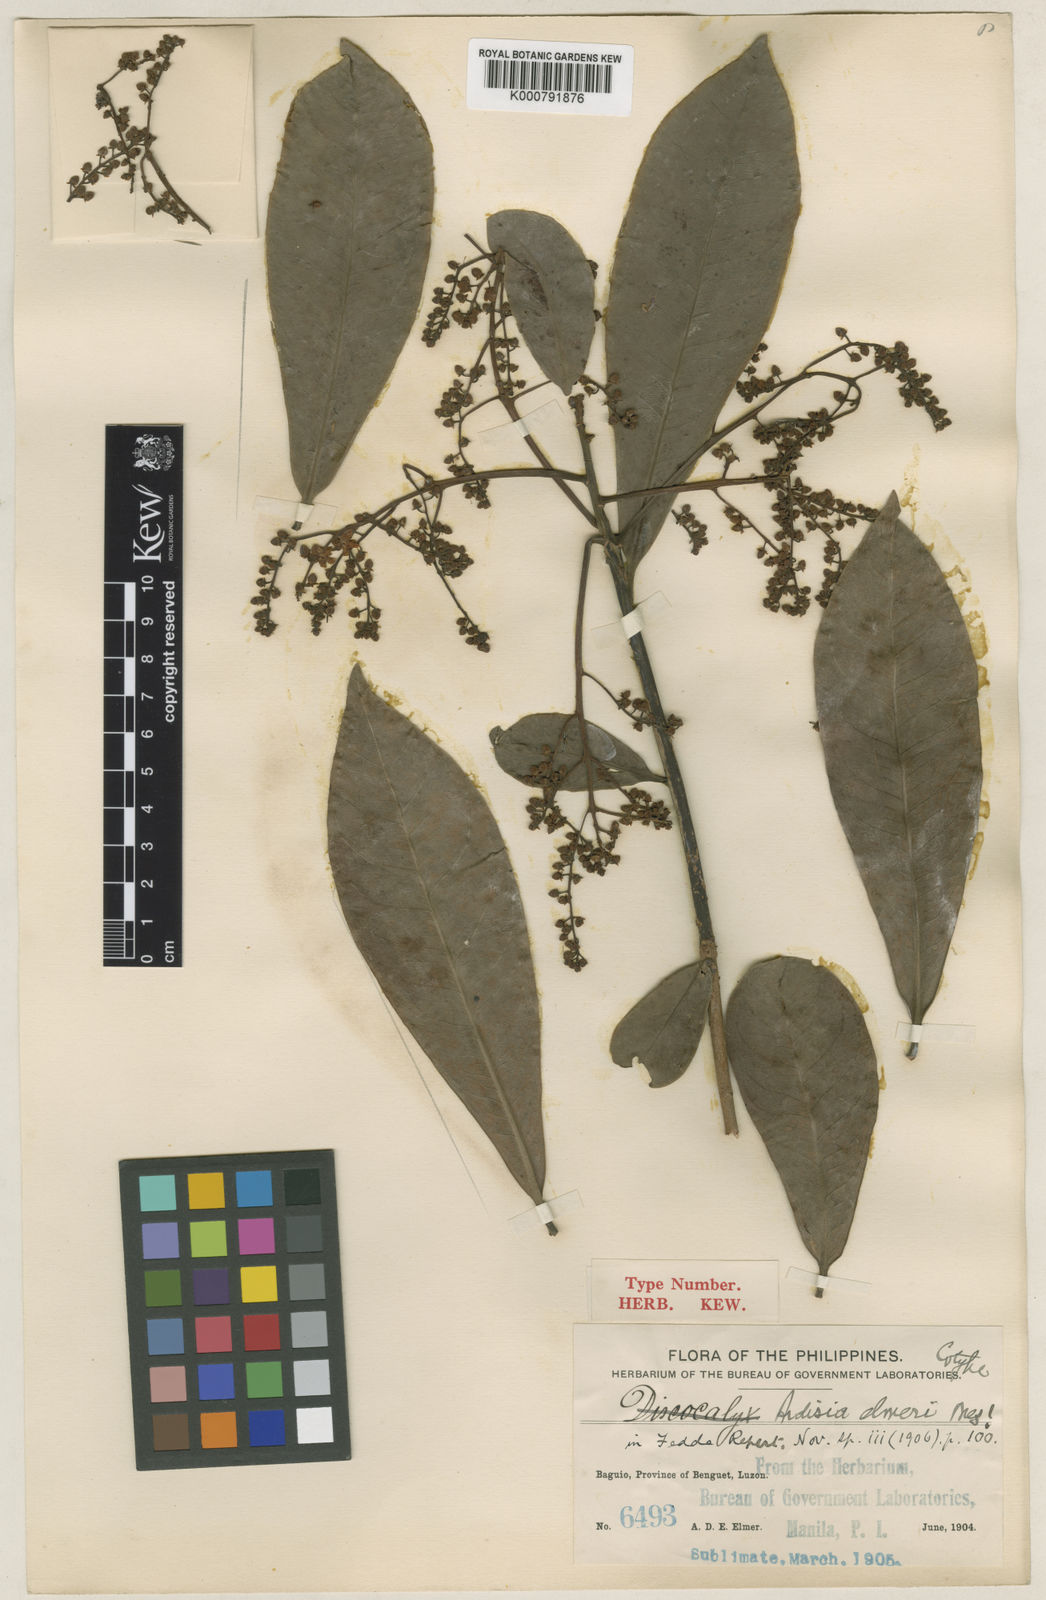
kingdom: Plantae
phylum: Tracheophyta
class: Magnoliopsida
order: Ericales
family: Primulaceae
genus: Ardisia
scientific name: Ardisia elmeri
